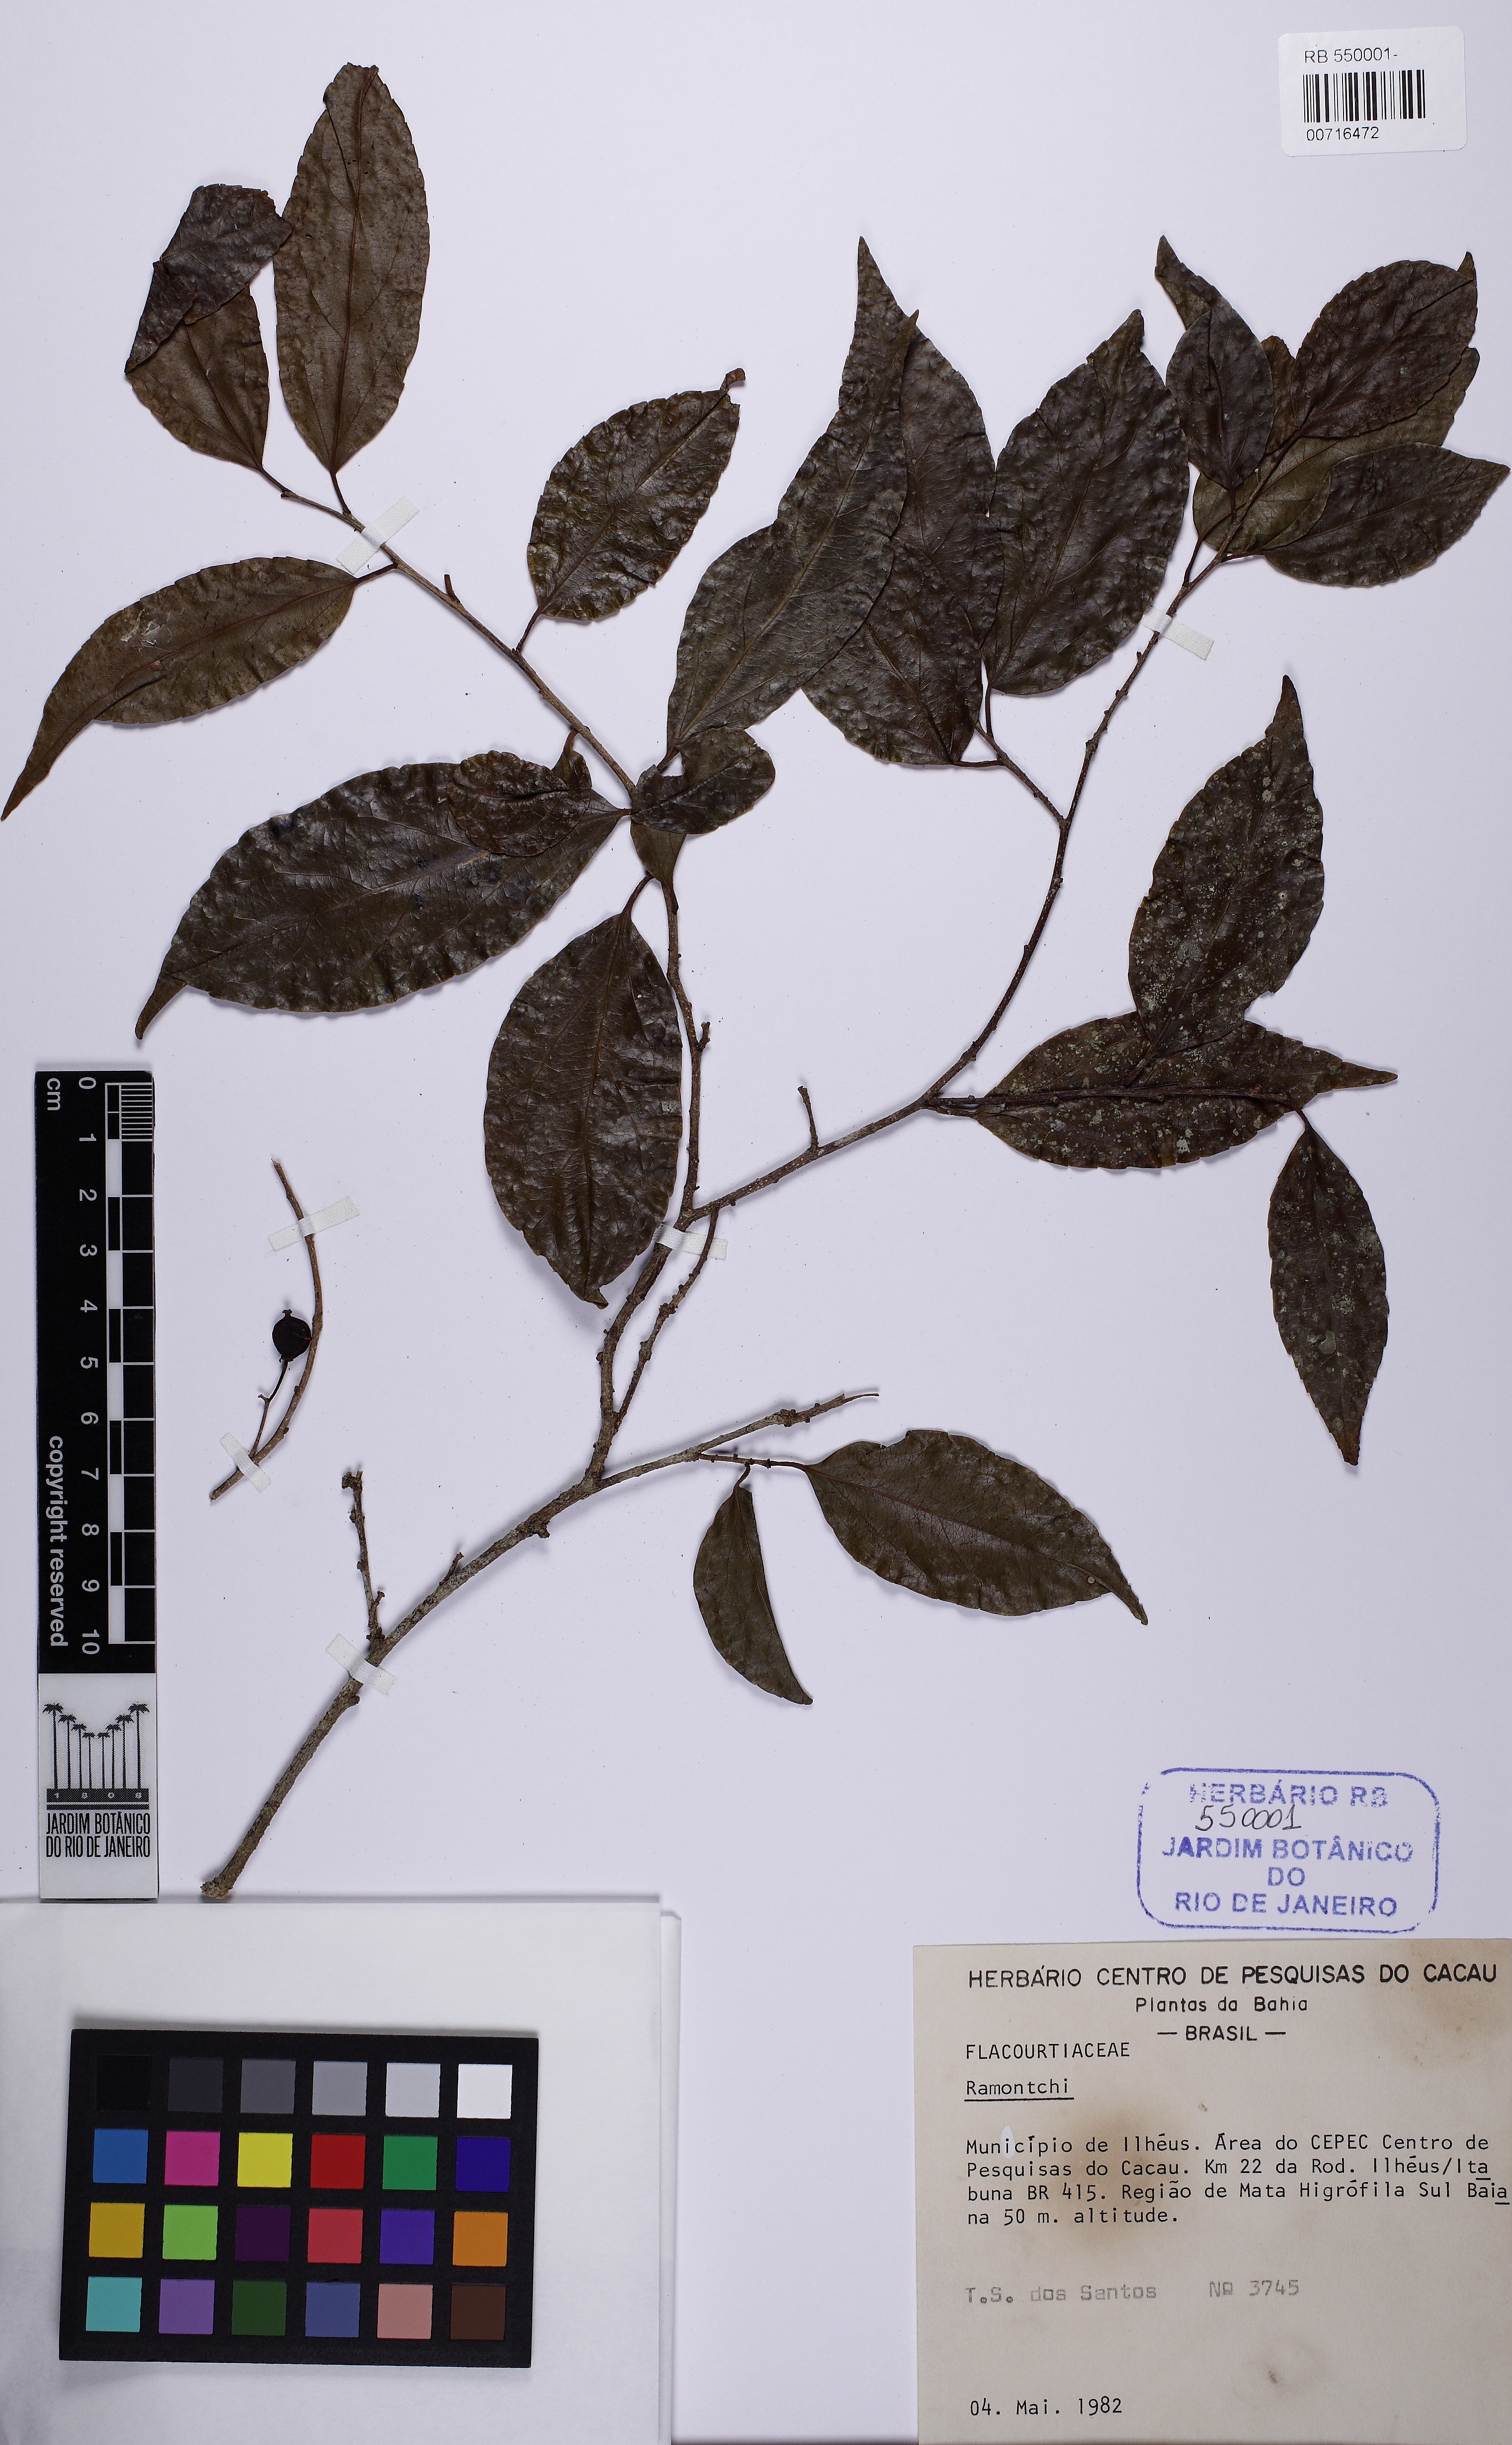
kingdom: Plantae
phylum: Tracheophyta
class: Magnoliopsida
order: Malpighiales
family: Flacourtiaceae
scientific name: Flacourtiaceae
